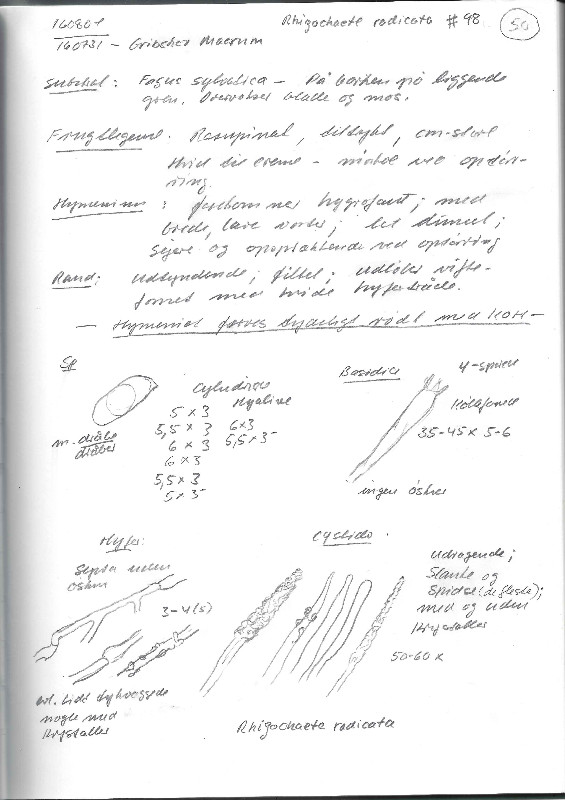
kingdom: Fungi
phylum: Basidiomycota
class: Agaricomycetes
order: Polyporales
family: Phanerochaetaceae
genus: Rhizochaete
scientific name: Rhizochaete radicata
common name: orangebrun randtråd
